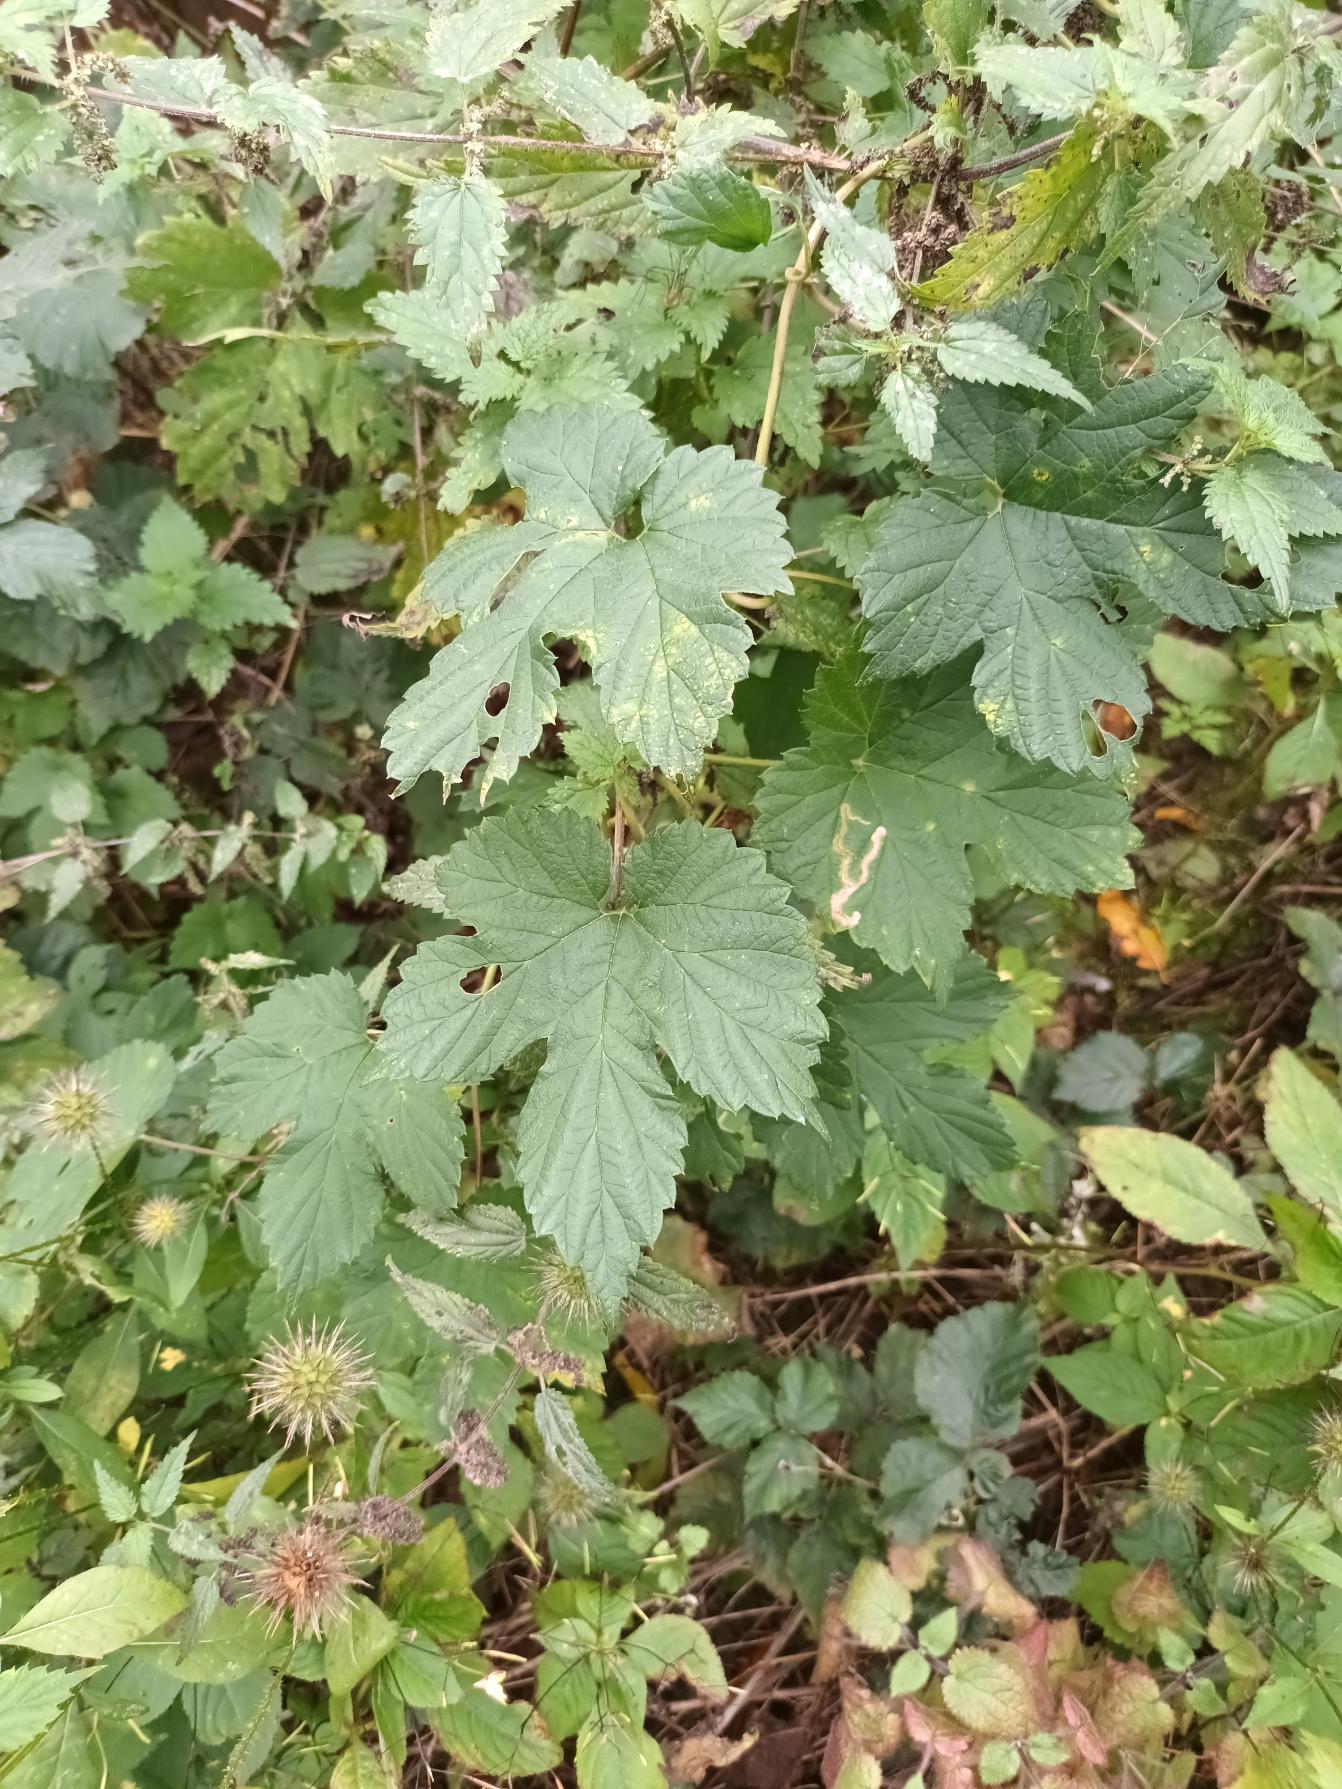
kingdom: Plantae
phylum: Tracheophyta
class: Magnoliopsida
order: Rosales
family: Cannabaceae
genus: Humulus
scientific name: Humulus lupulus
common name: Humle
